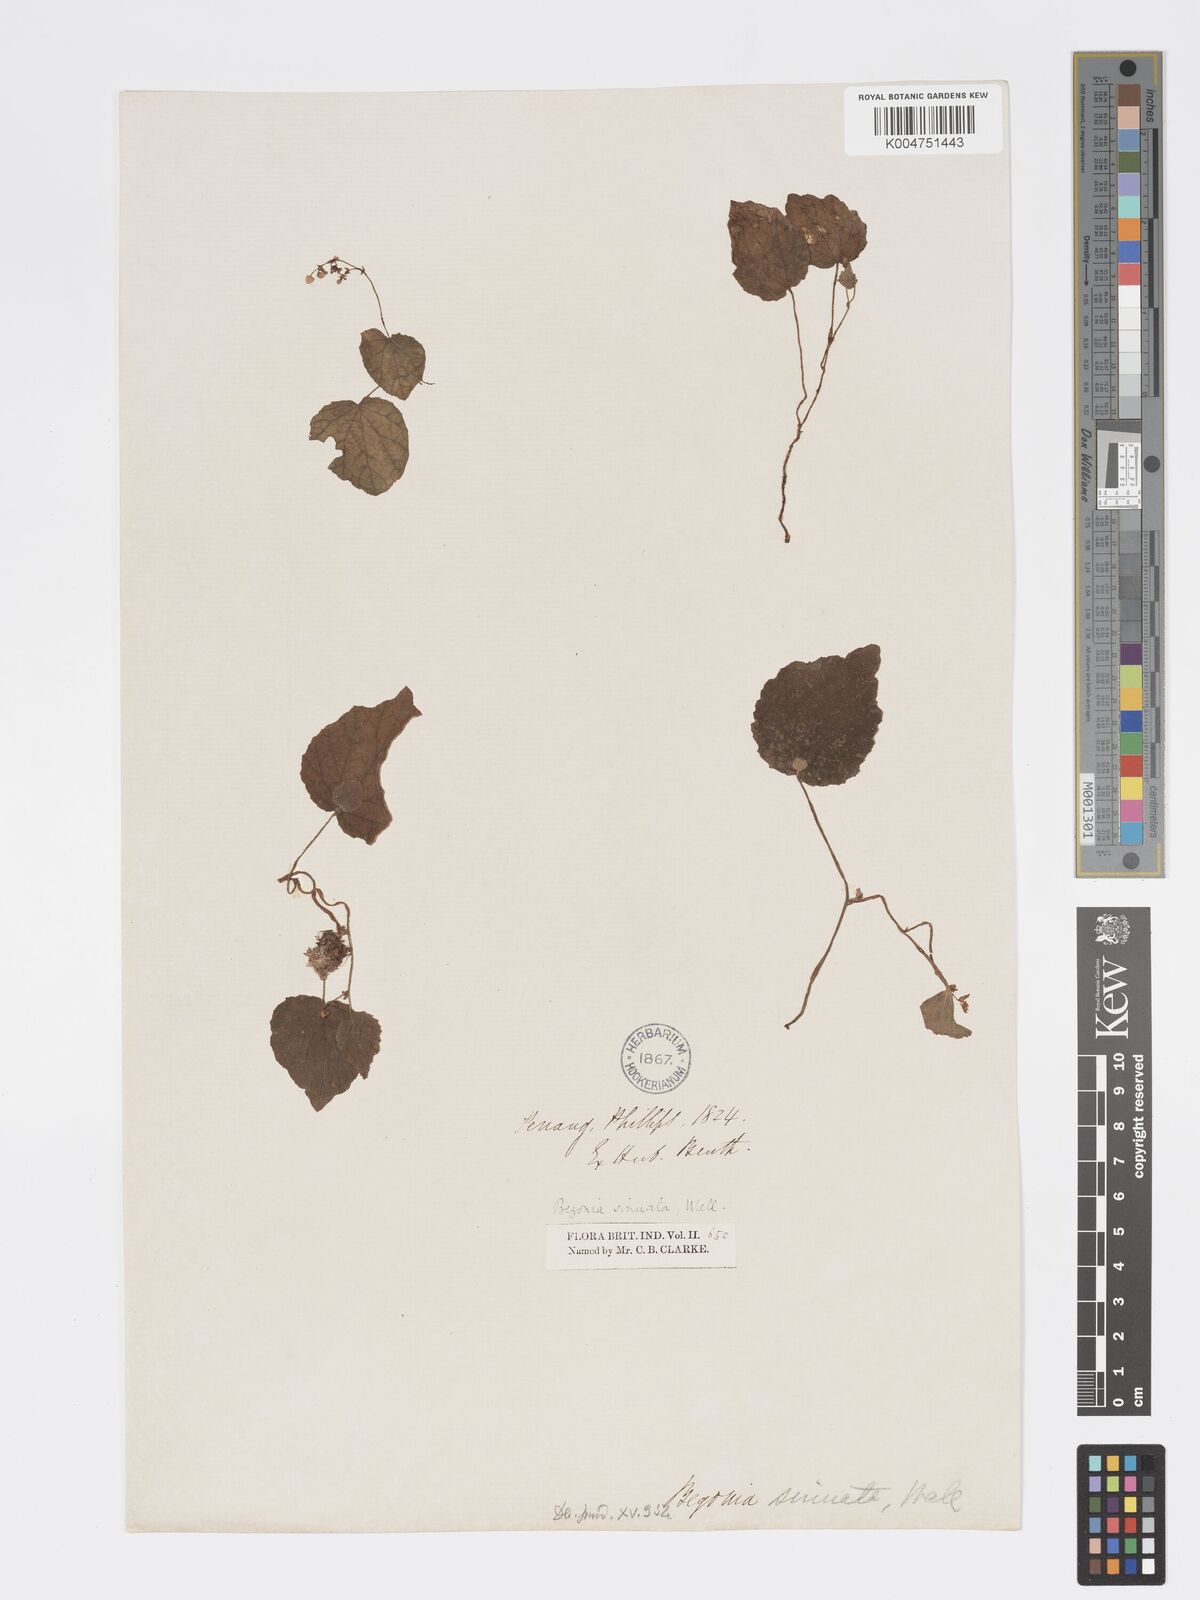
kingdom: Plantae
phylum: Tracheophyta
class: Magnoliopsida
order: Cucurbitales
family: Begoniaceae
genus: Begonia
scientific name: Begonia
